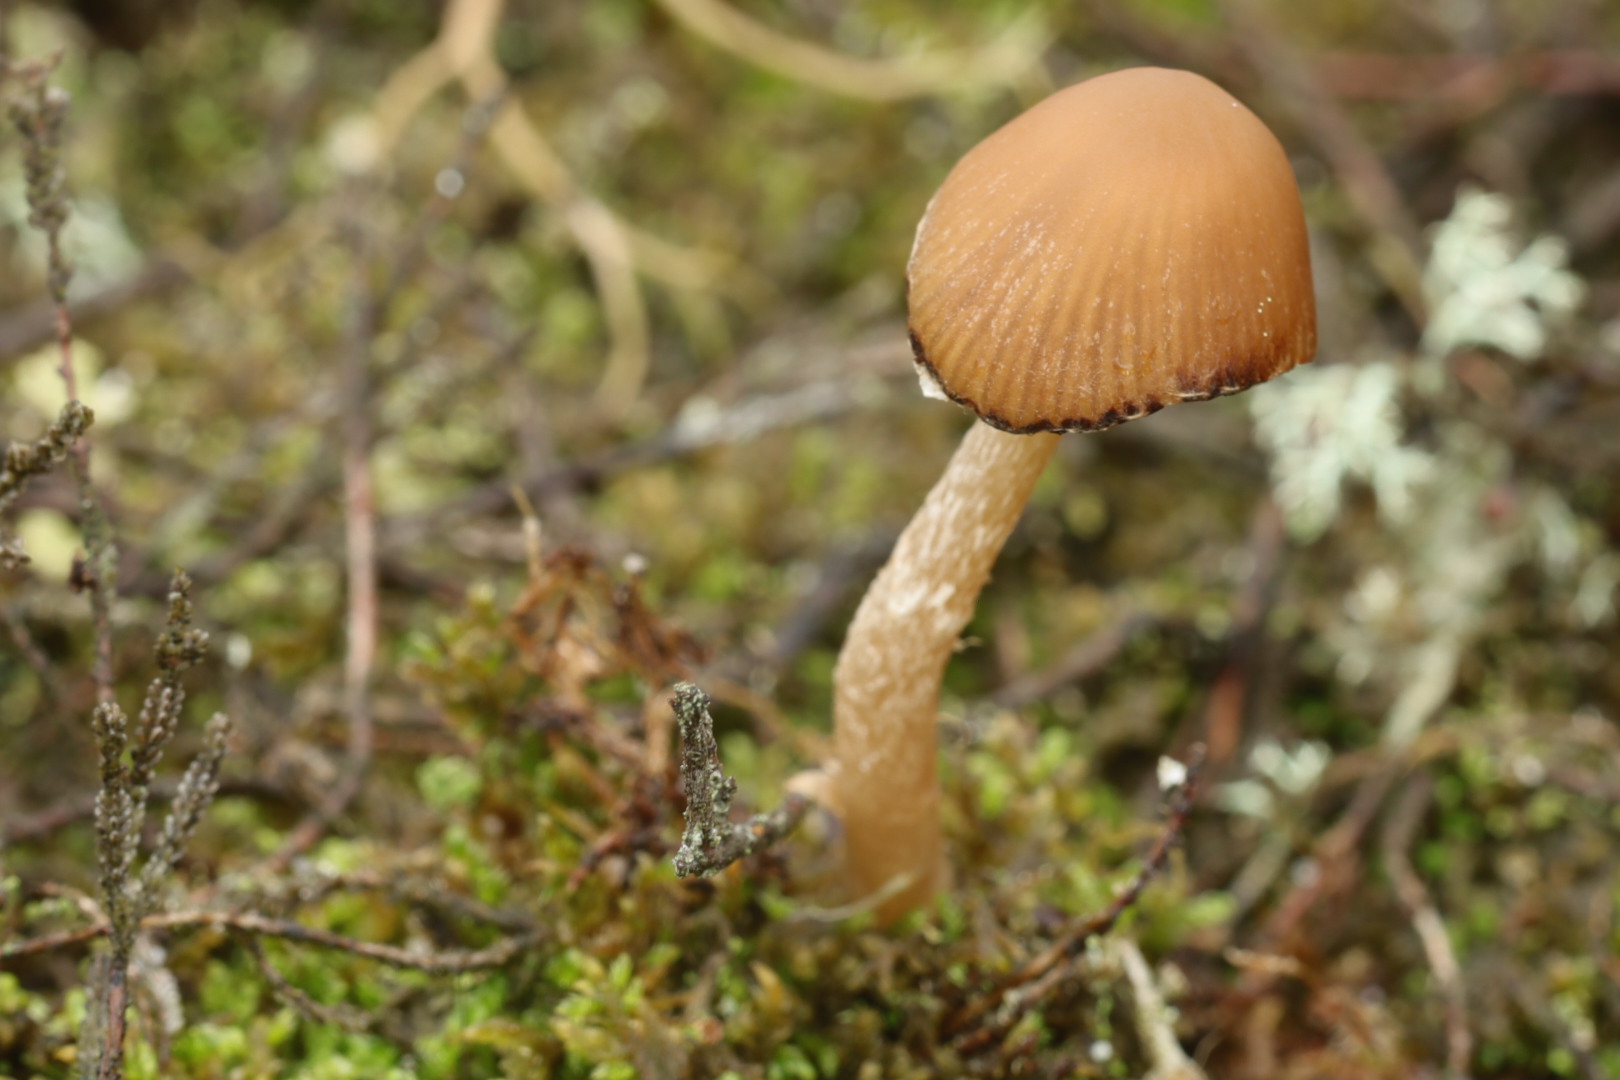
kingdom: Fungi
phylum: Basidiomycota
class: Agaricomycetes
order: Agaricales
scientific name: Agaricales
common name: champignonordenen
